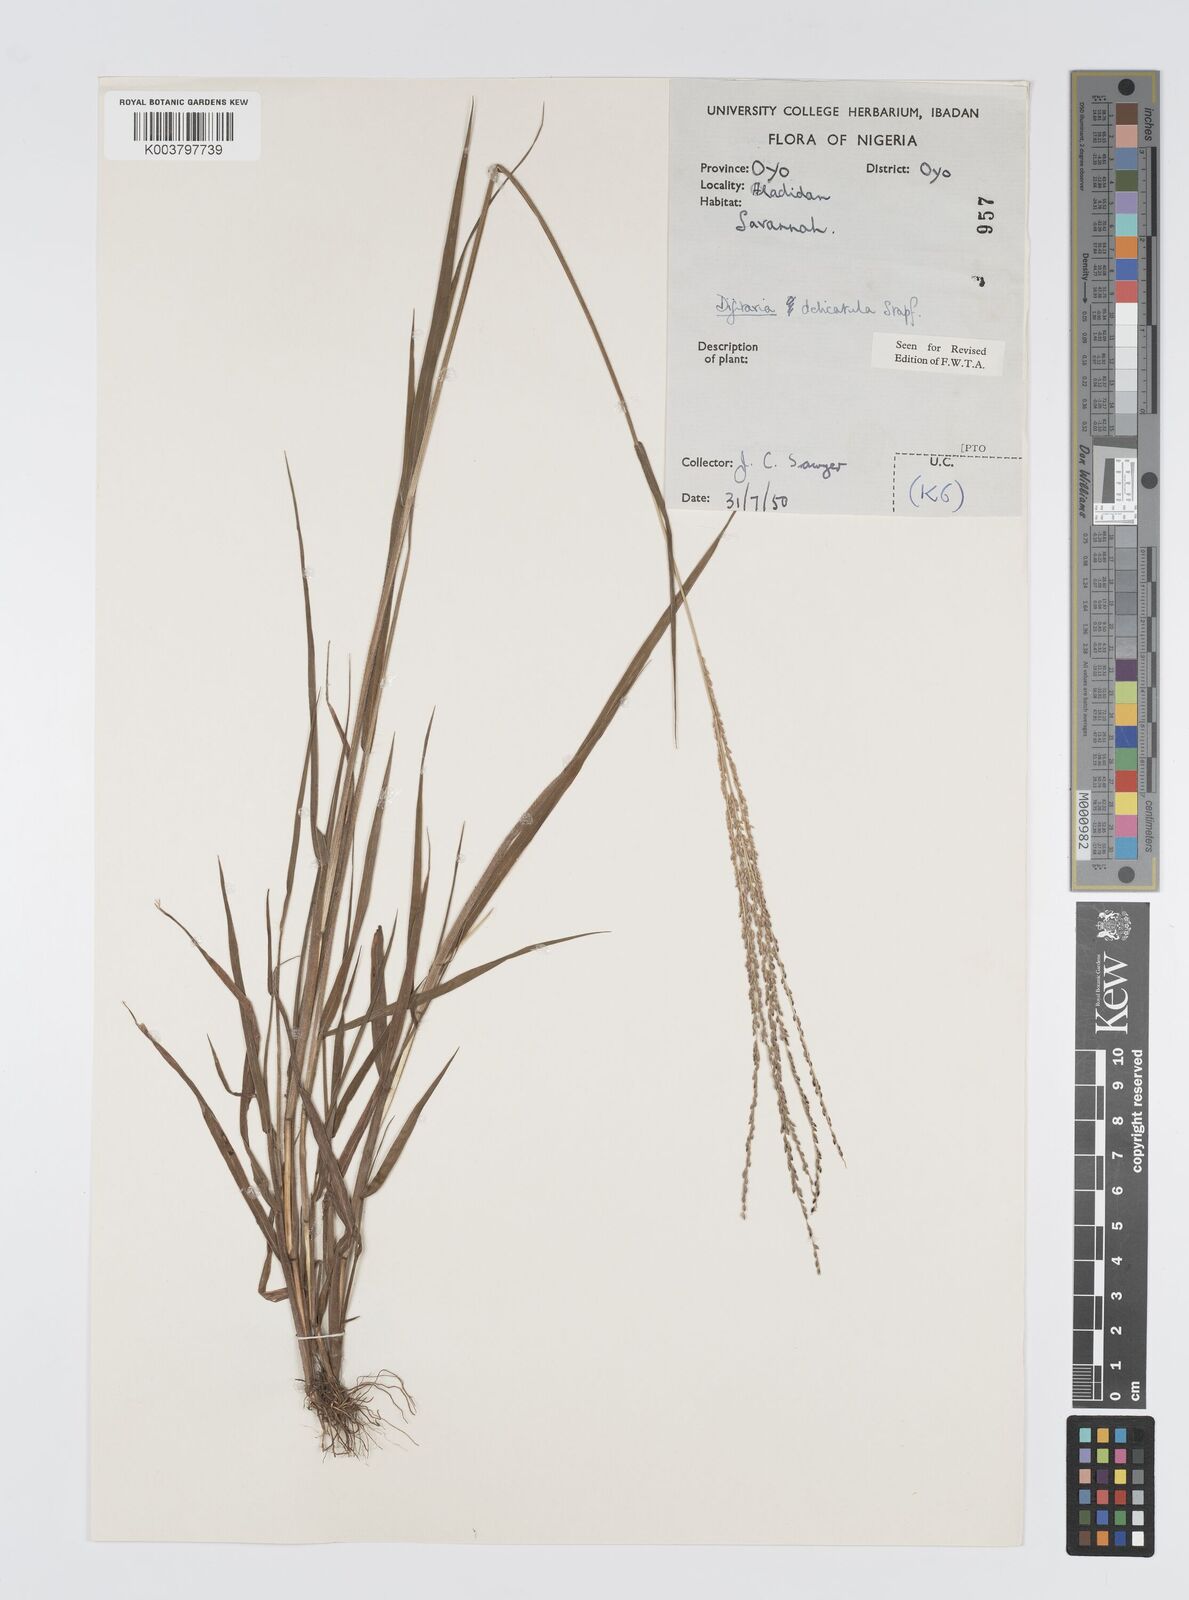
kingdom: Plantae
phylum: Tracheophyta
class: Liliopsida
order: Poales
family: Poaceae
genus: Digitaria
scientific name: Digitaria delicatula
